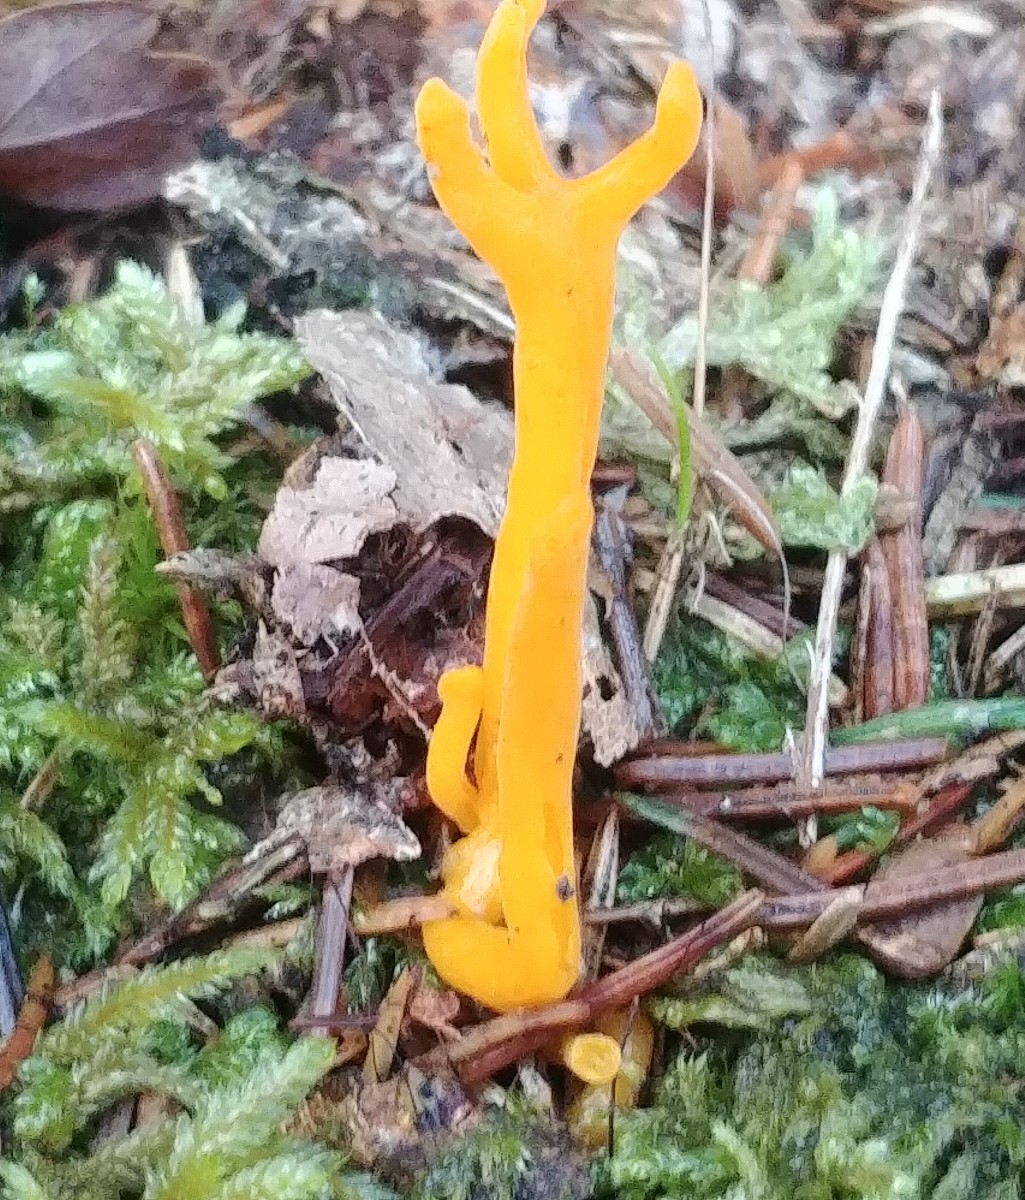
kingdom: Fungi
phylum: Basidiomycota
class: Dacrymycetes
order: Dacrymycetales
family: Dacrymycetaceae
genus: Calocera
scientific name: Calocera viscosa
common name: almindelig guldgaffel
